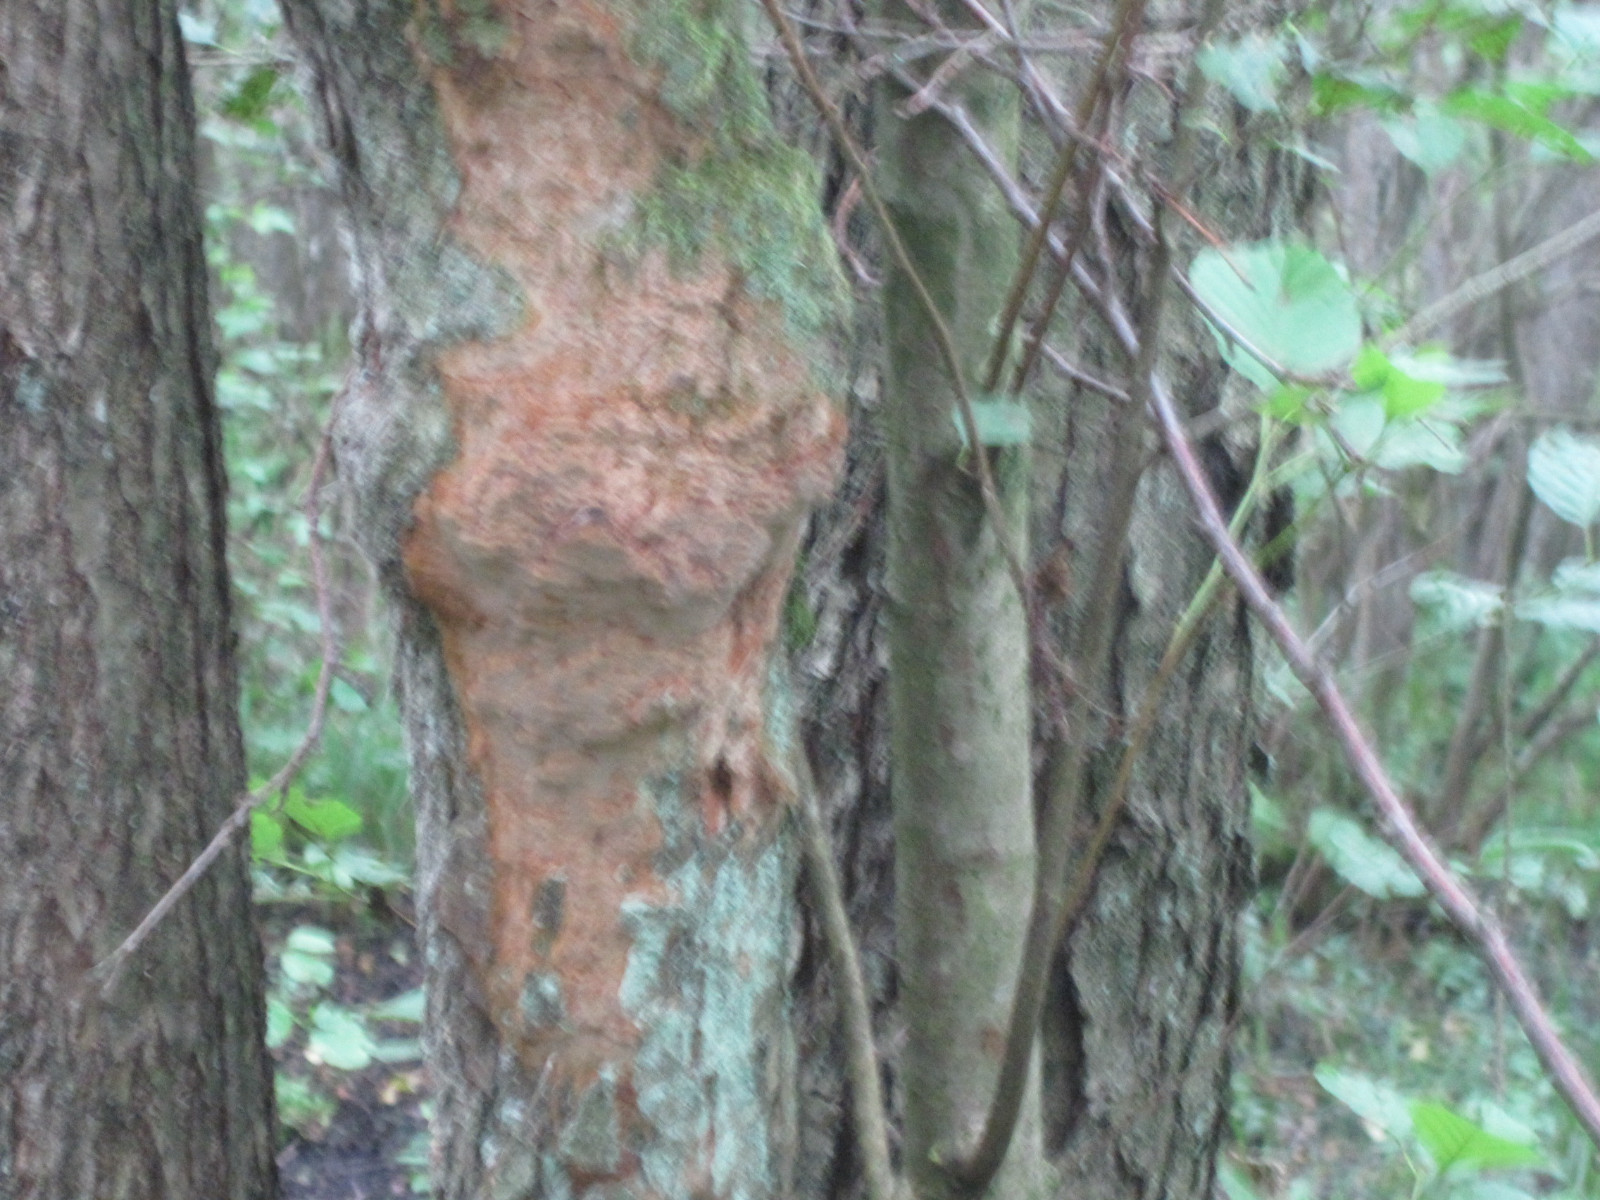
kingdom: Fungi
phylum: Basidiomycota
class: Agaricomycetes
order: Hymenochaetales
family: Hymenochaetaceae
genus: Fuscoporia
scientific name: Fuscoporia ferrea
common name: skorpe-ildporesvamp
